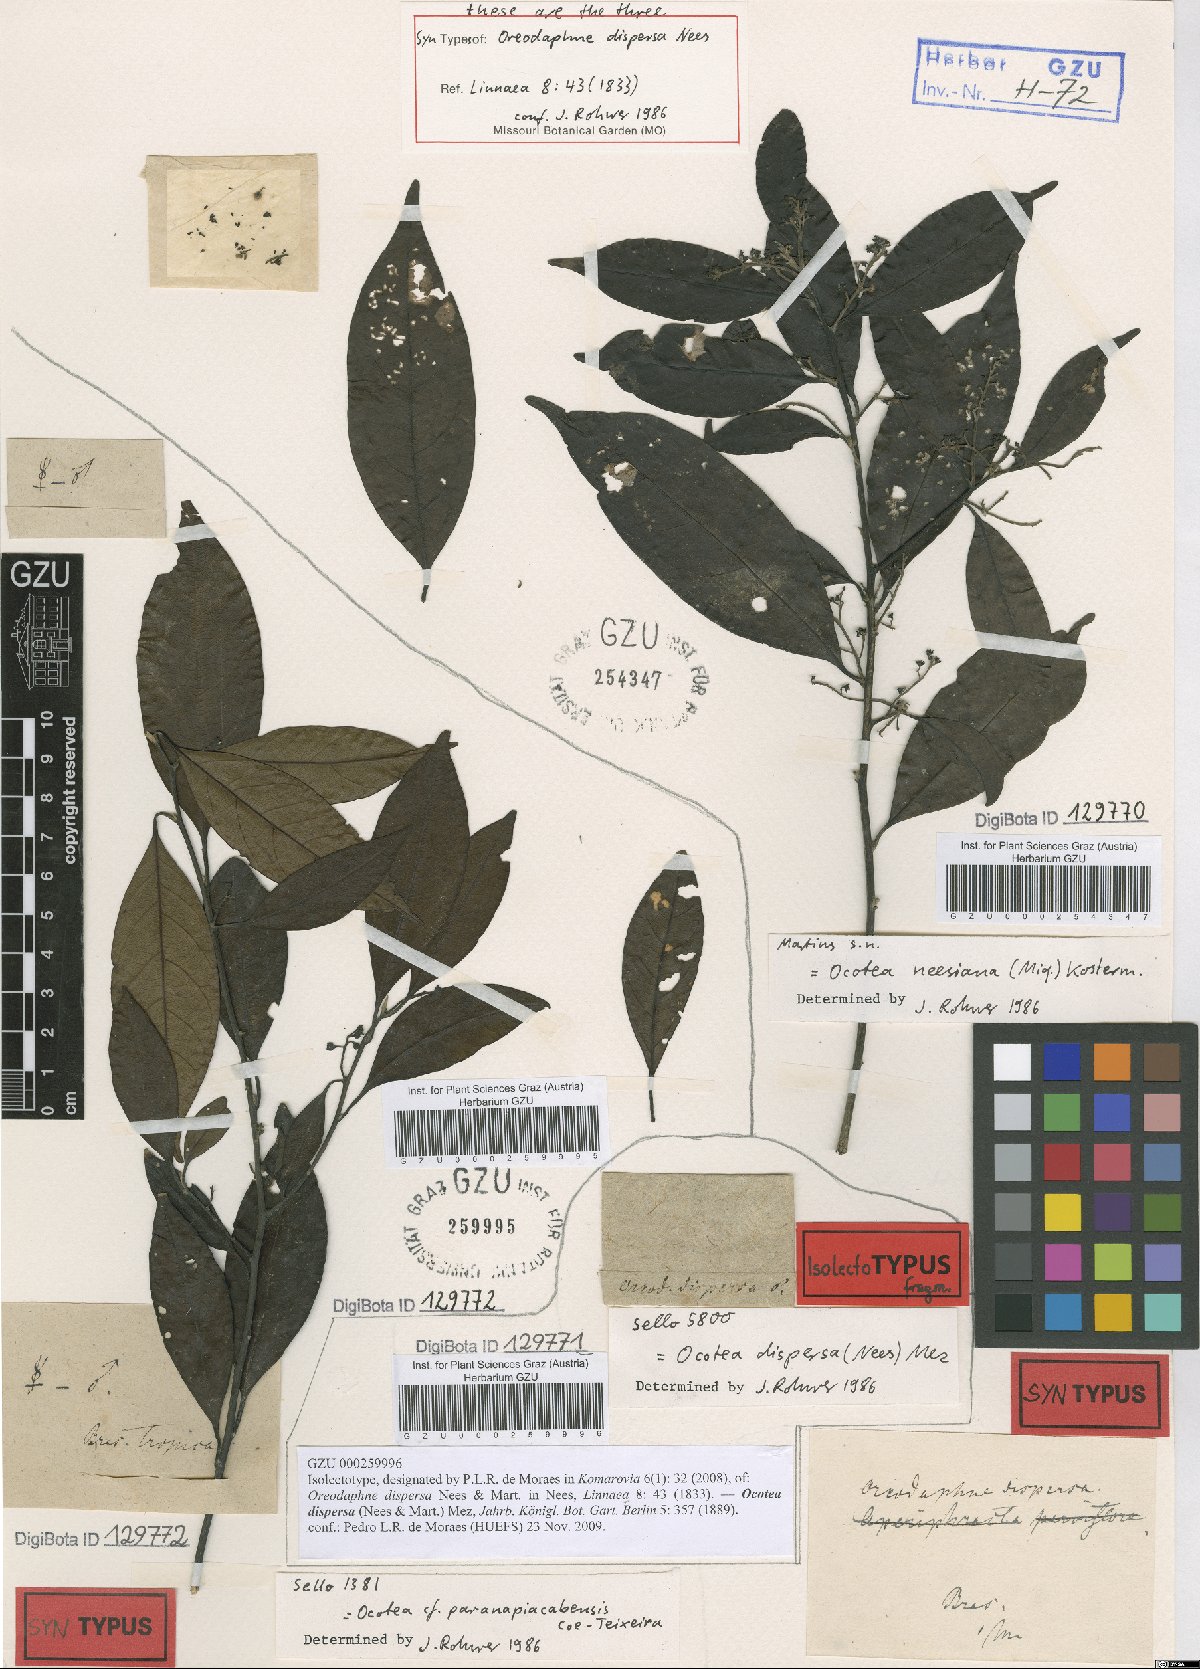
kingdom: Plantae
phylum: Tracheophyta
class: Magnoliopsida
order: Laurales
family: Lauraceae
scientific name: Lauraceae
